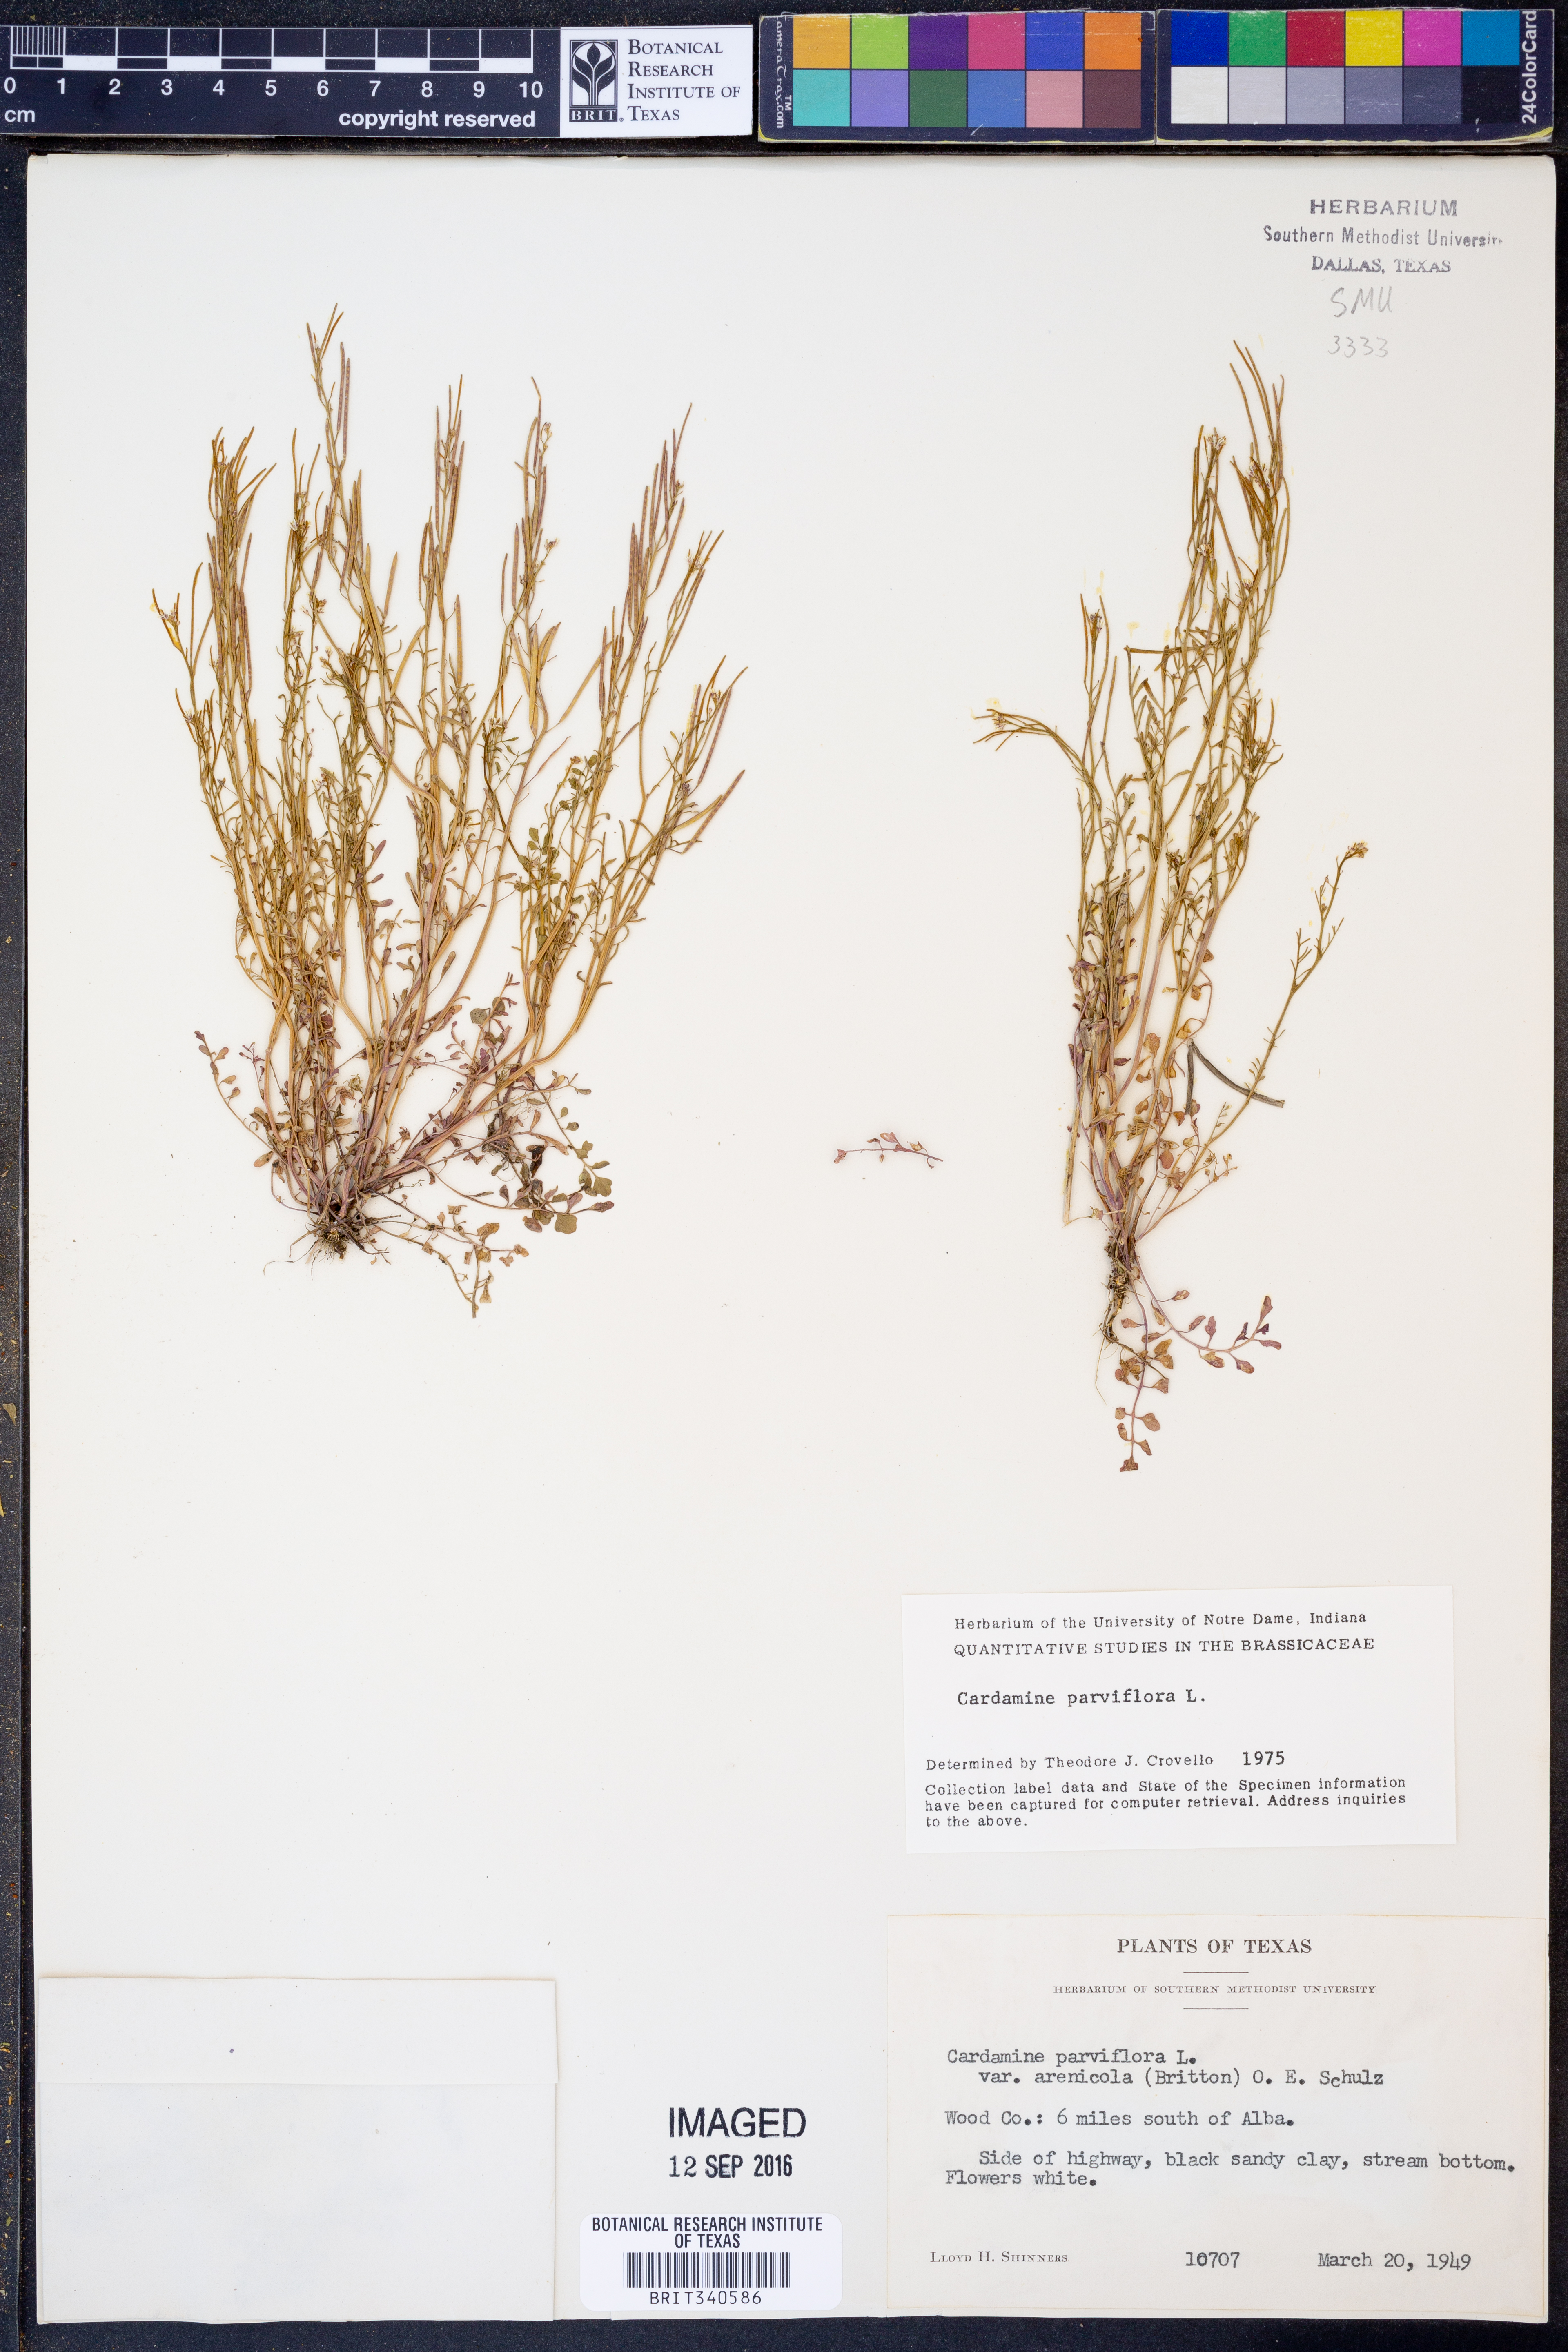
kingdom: Plantae
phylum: Tracheophyta
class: Magnoliopsida
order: Brassicales
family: Brassicaceae
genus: Cardamine
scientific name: Cardamine parviflora
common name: Sand bittercress
